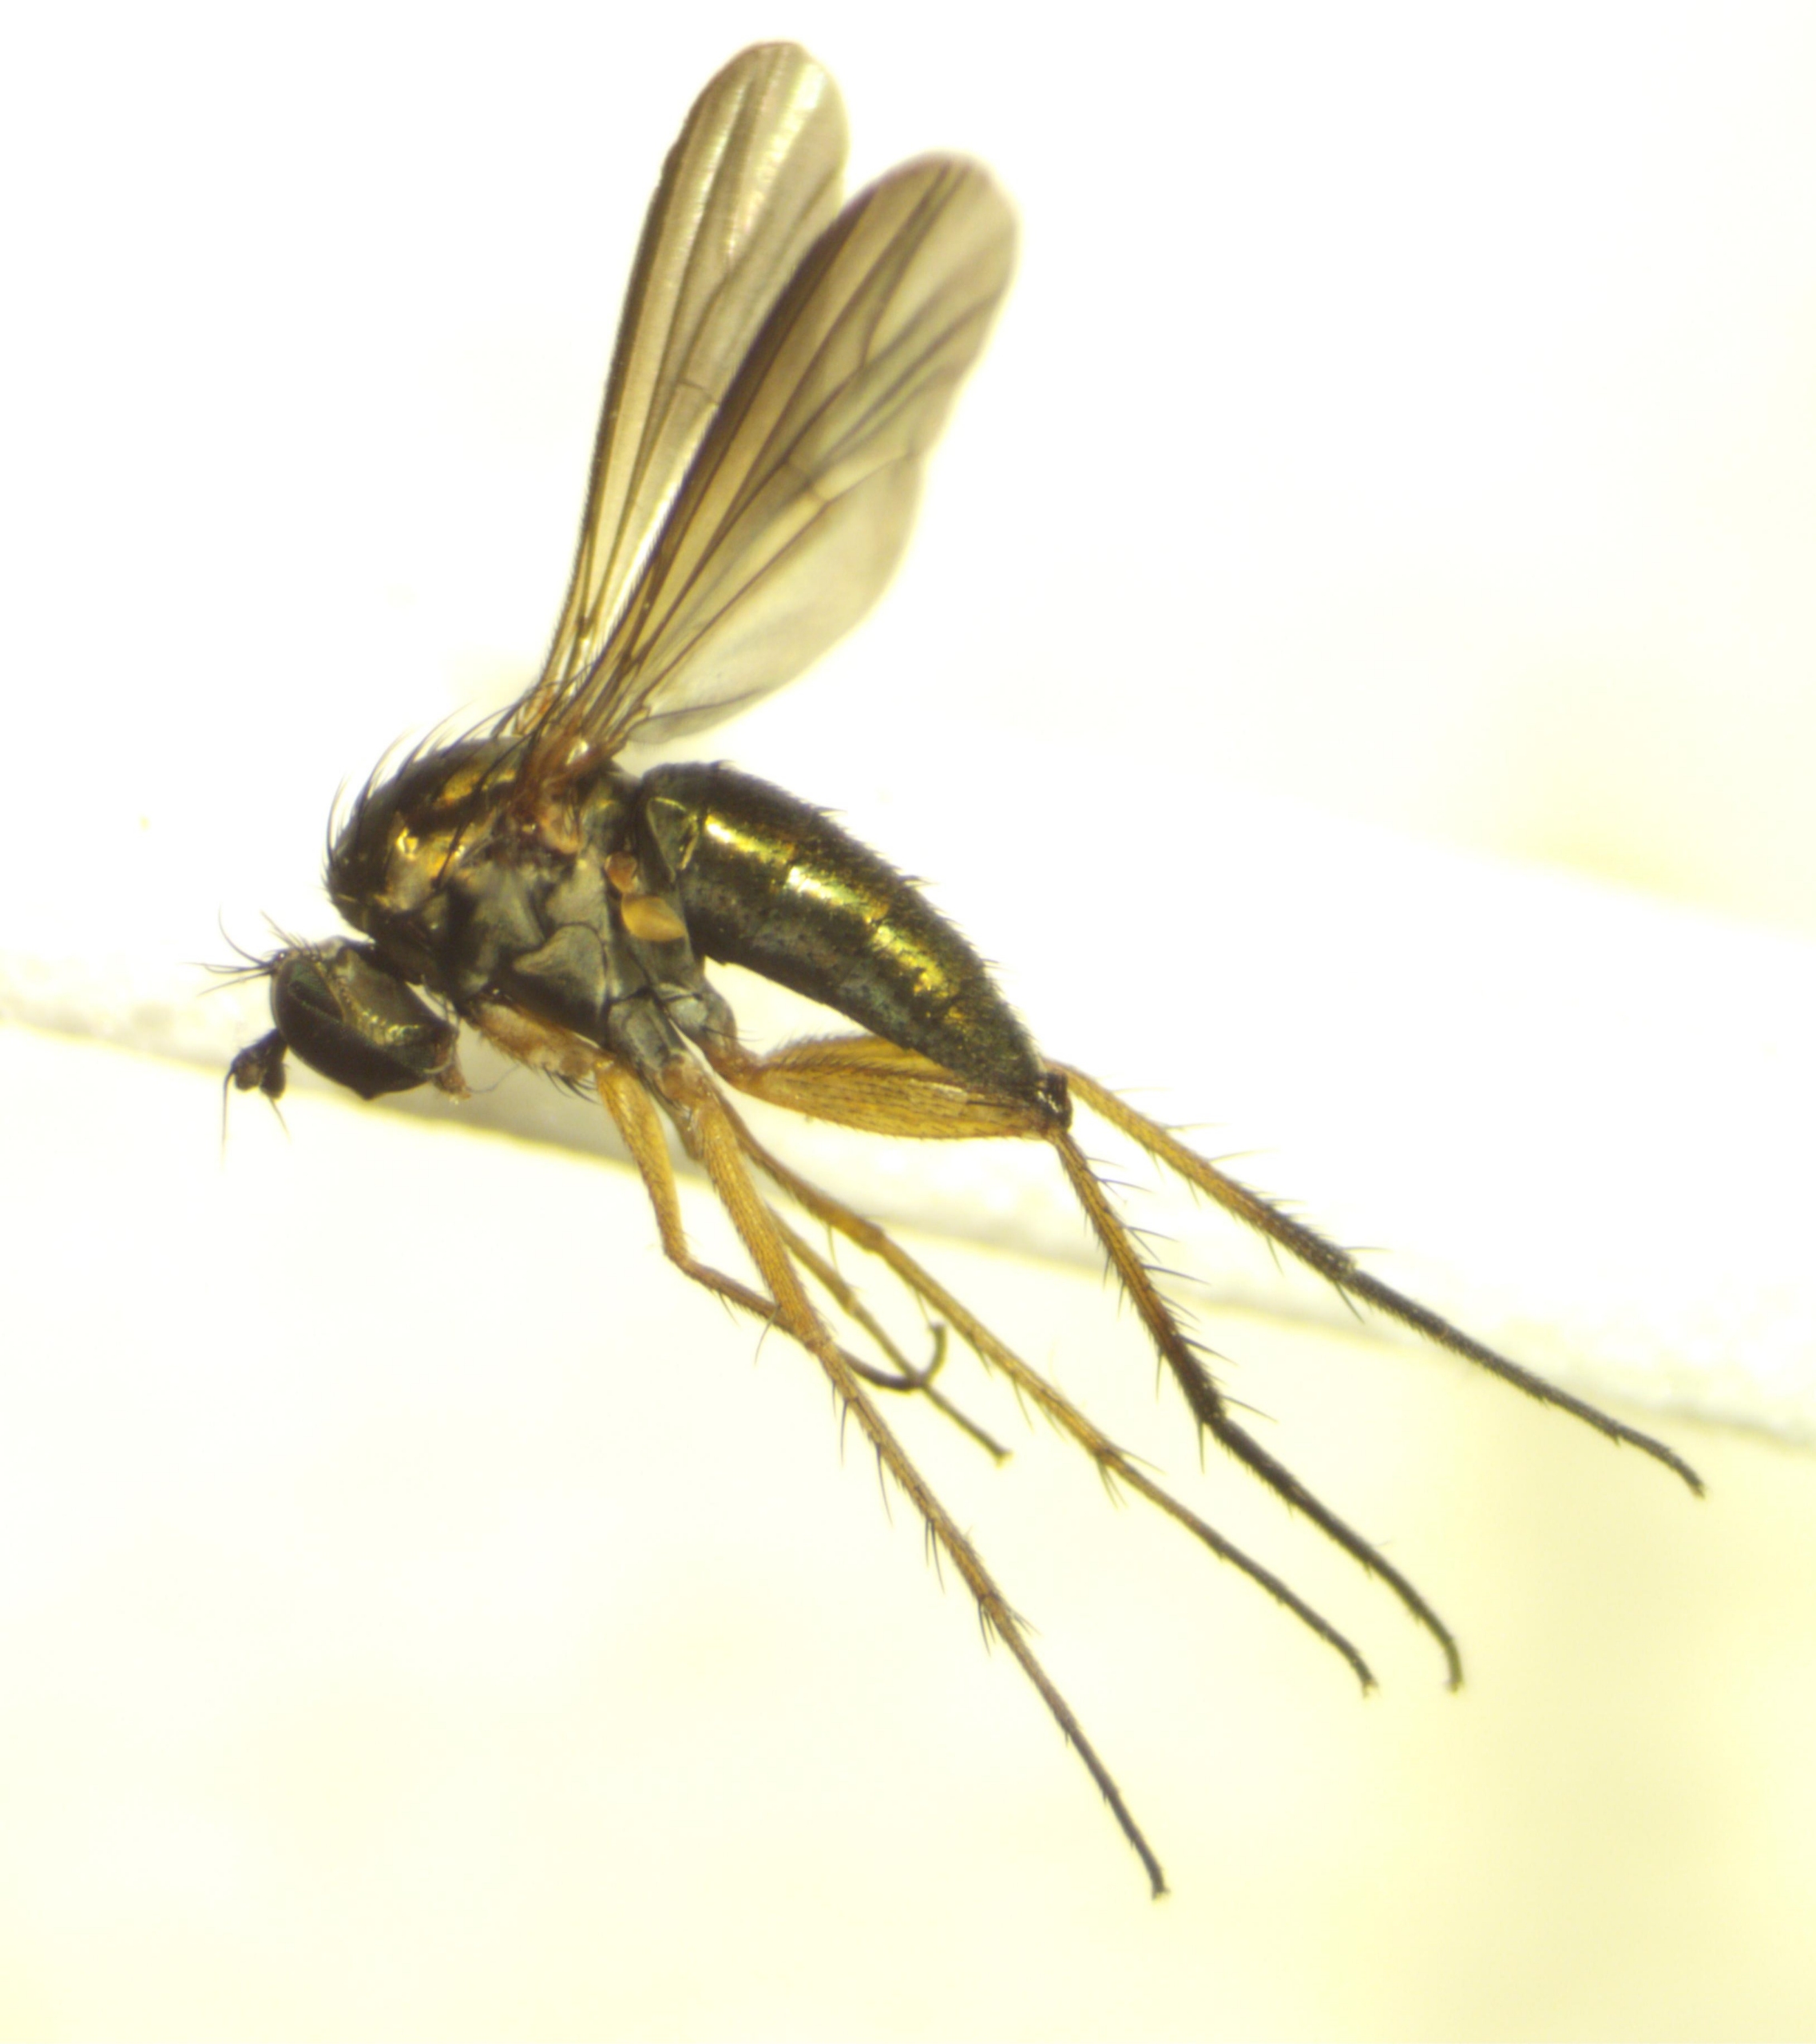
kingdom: Animalia
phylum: Arthropoda
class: Insecta
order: Diptera
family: Dolichopodidae
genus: Hercostomus
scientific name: Hercostomus germanus
